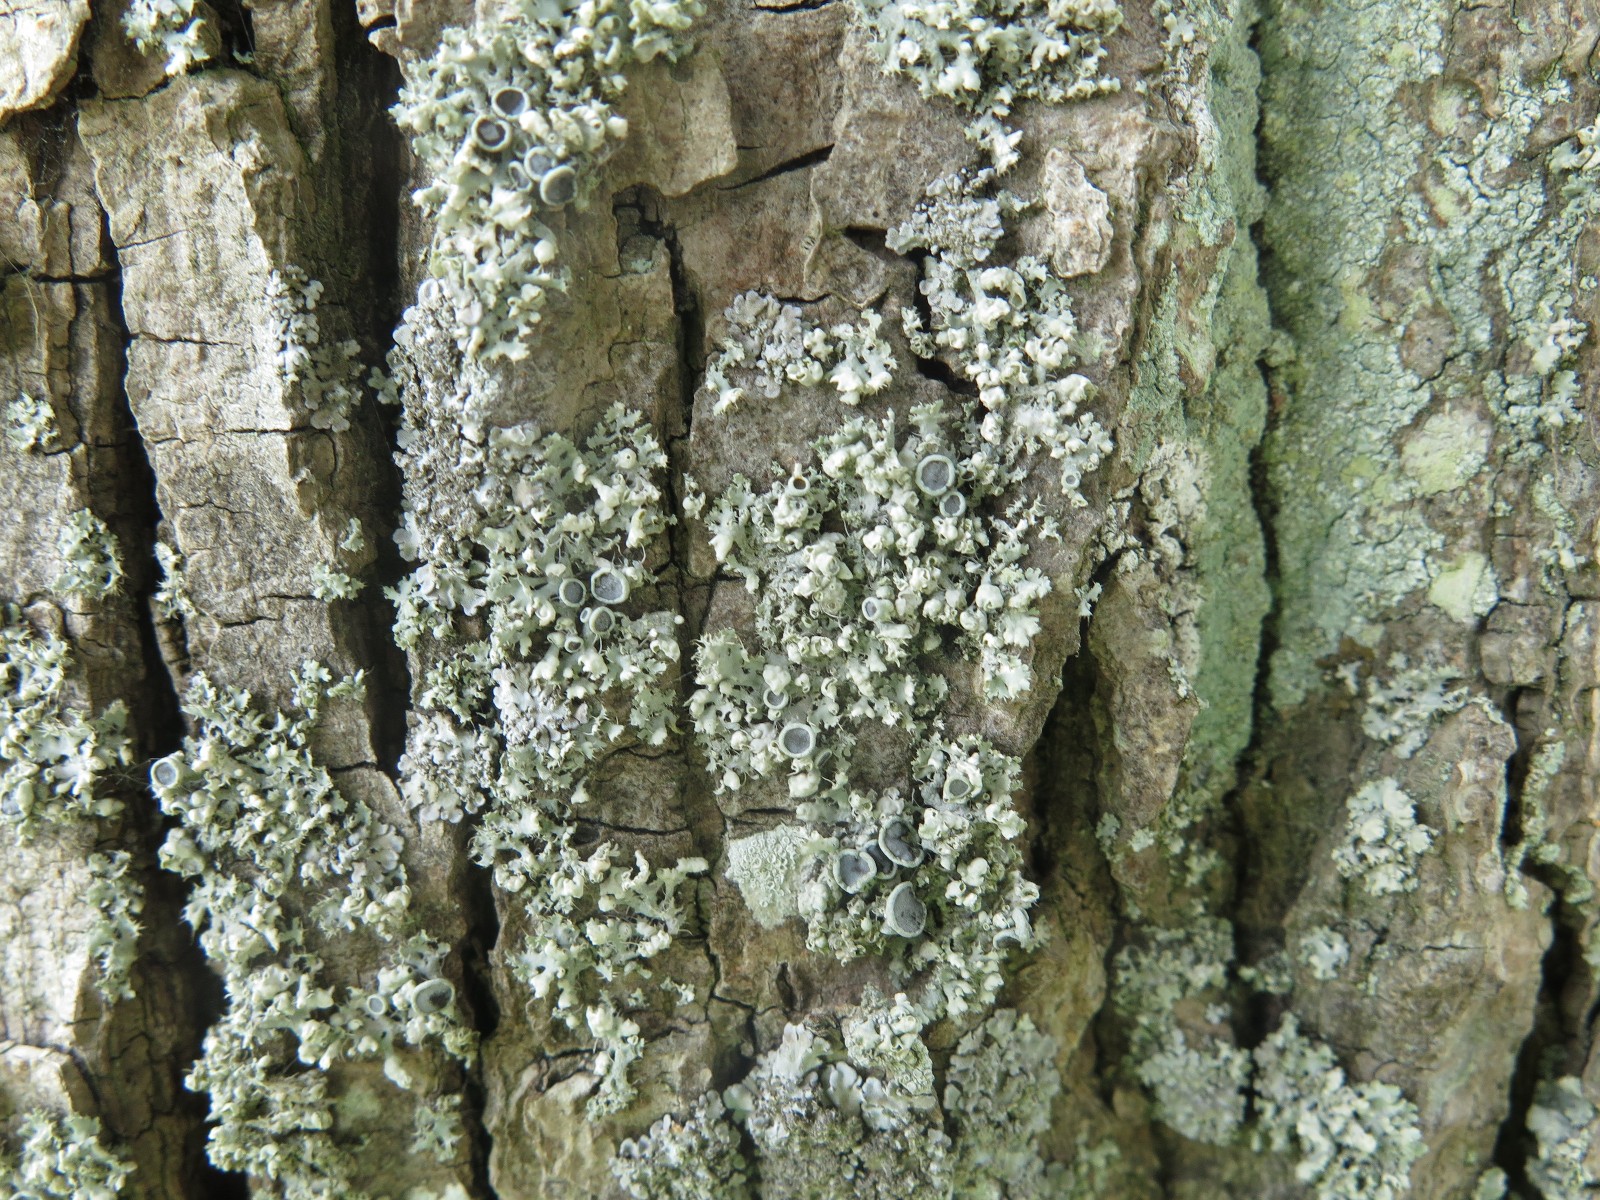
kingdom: Fungi
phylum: Ascomycota
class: Lecanoromycetes
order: Caliciales
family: Physciaceae
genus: Physcia
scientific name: Physcia adscendens
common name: hætte-rosetlav
